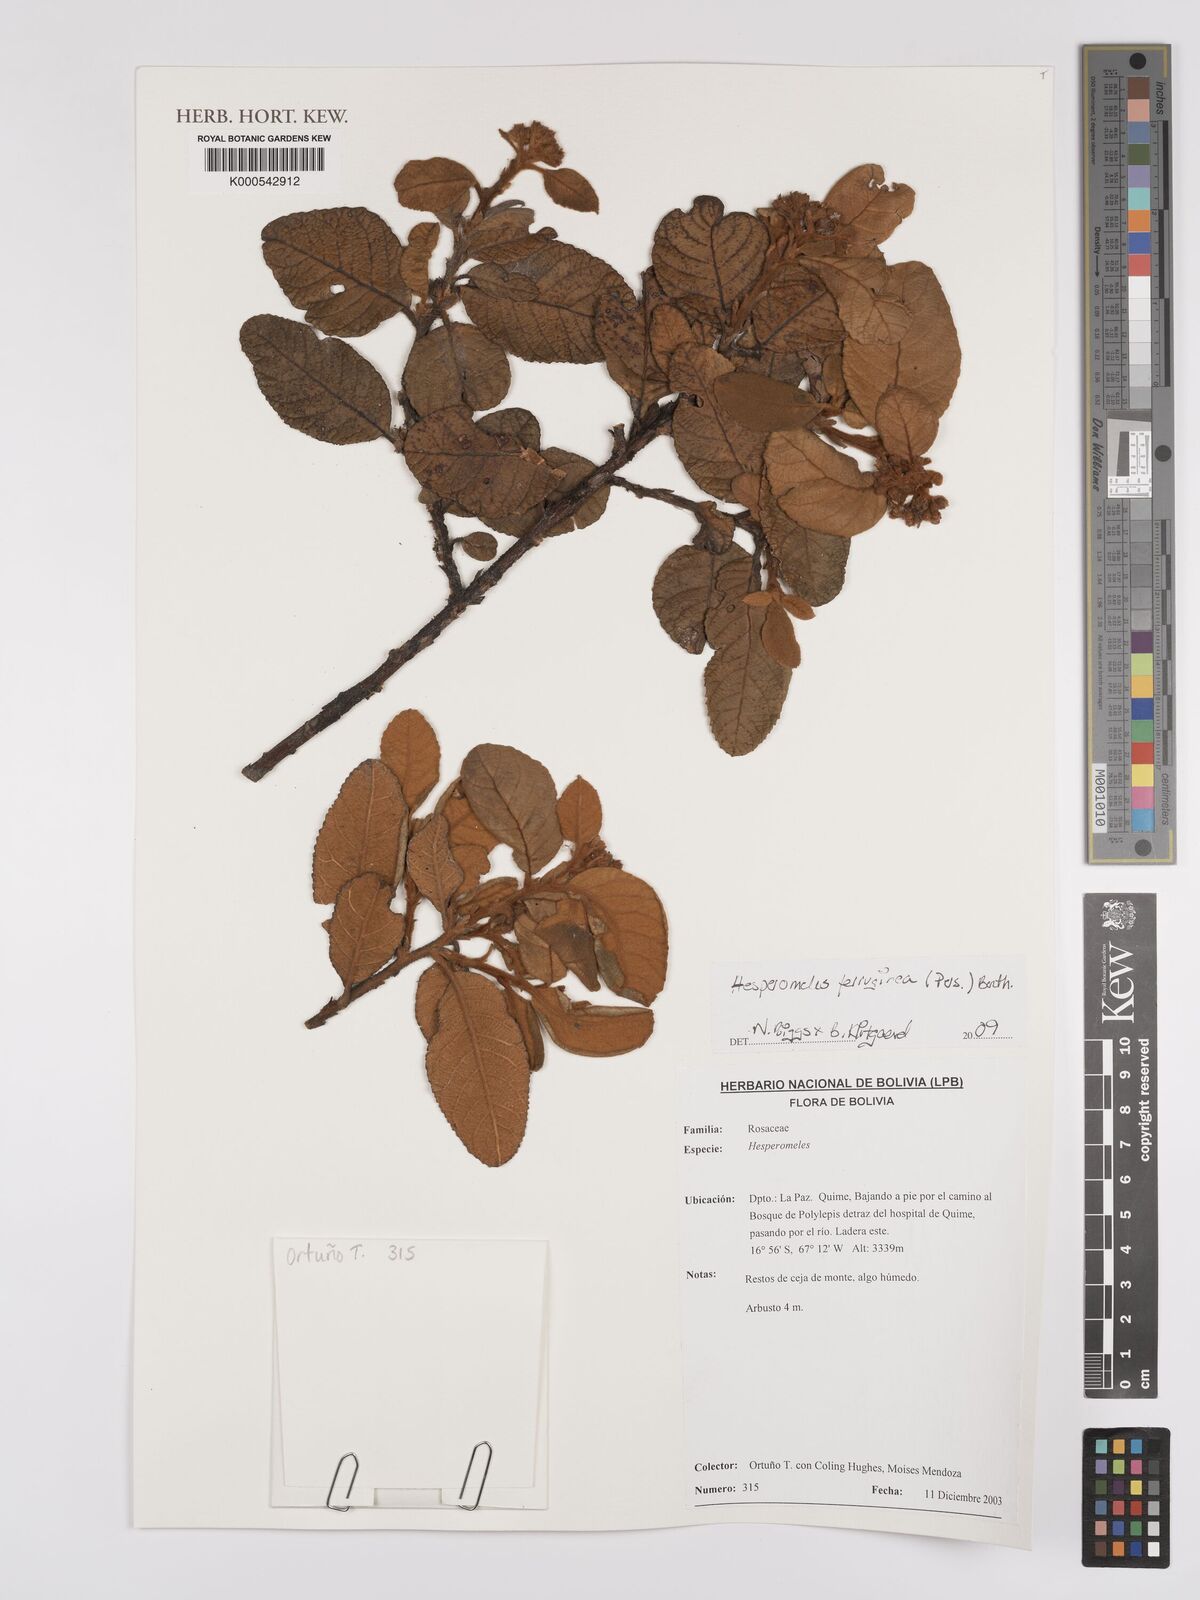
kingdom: Plantae
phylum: Tracheophyta
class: Magnoliopsida
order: Rosales
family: Rosaceae
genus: Hesperomeles
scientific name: Hesperomeles ferruginea
